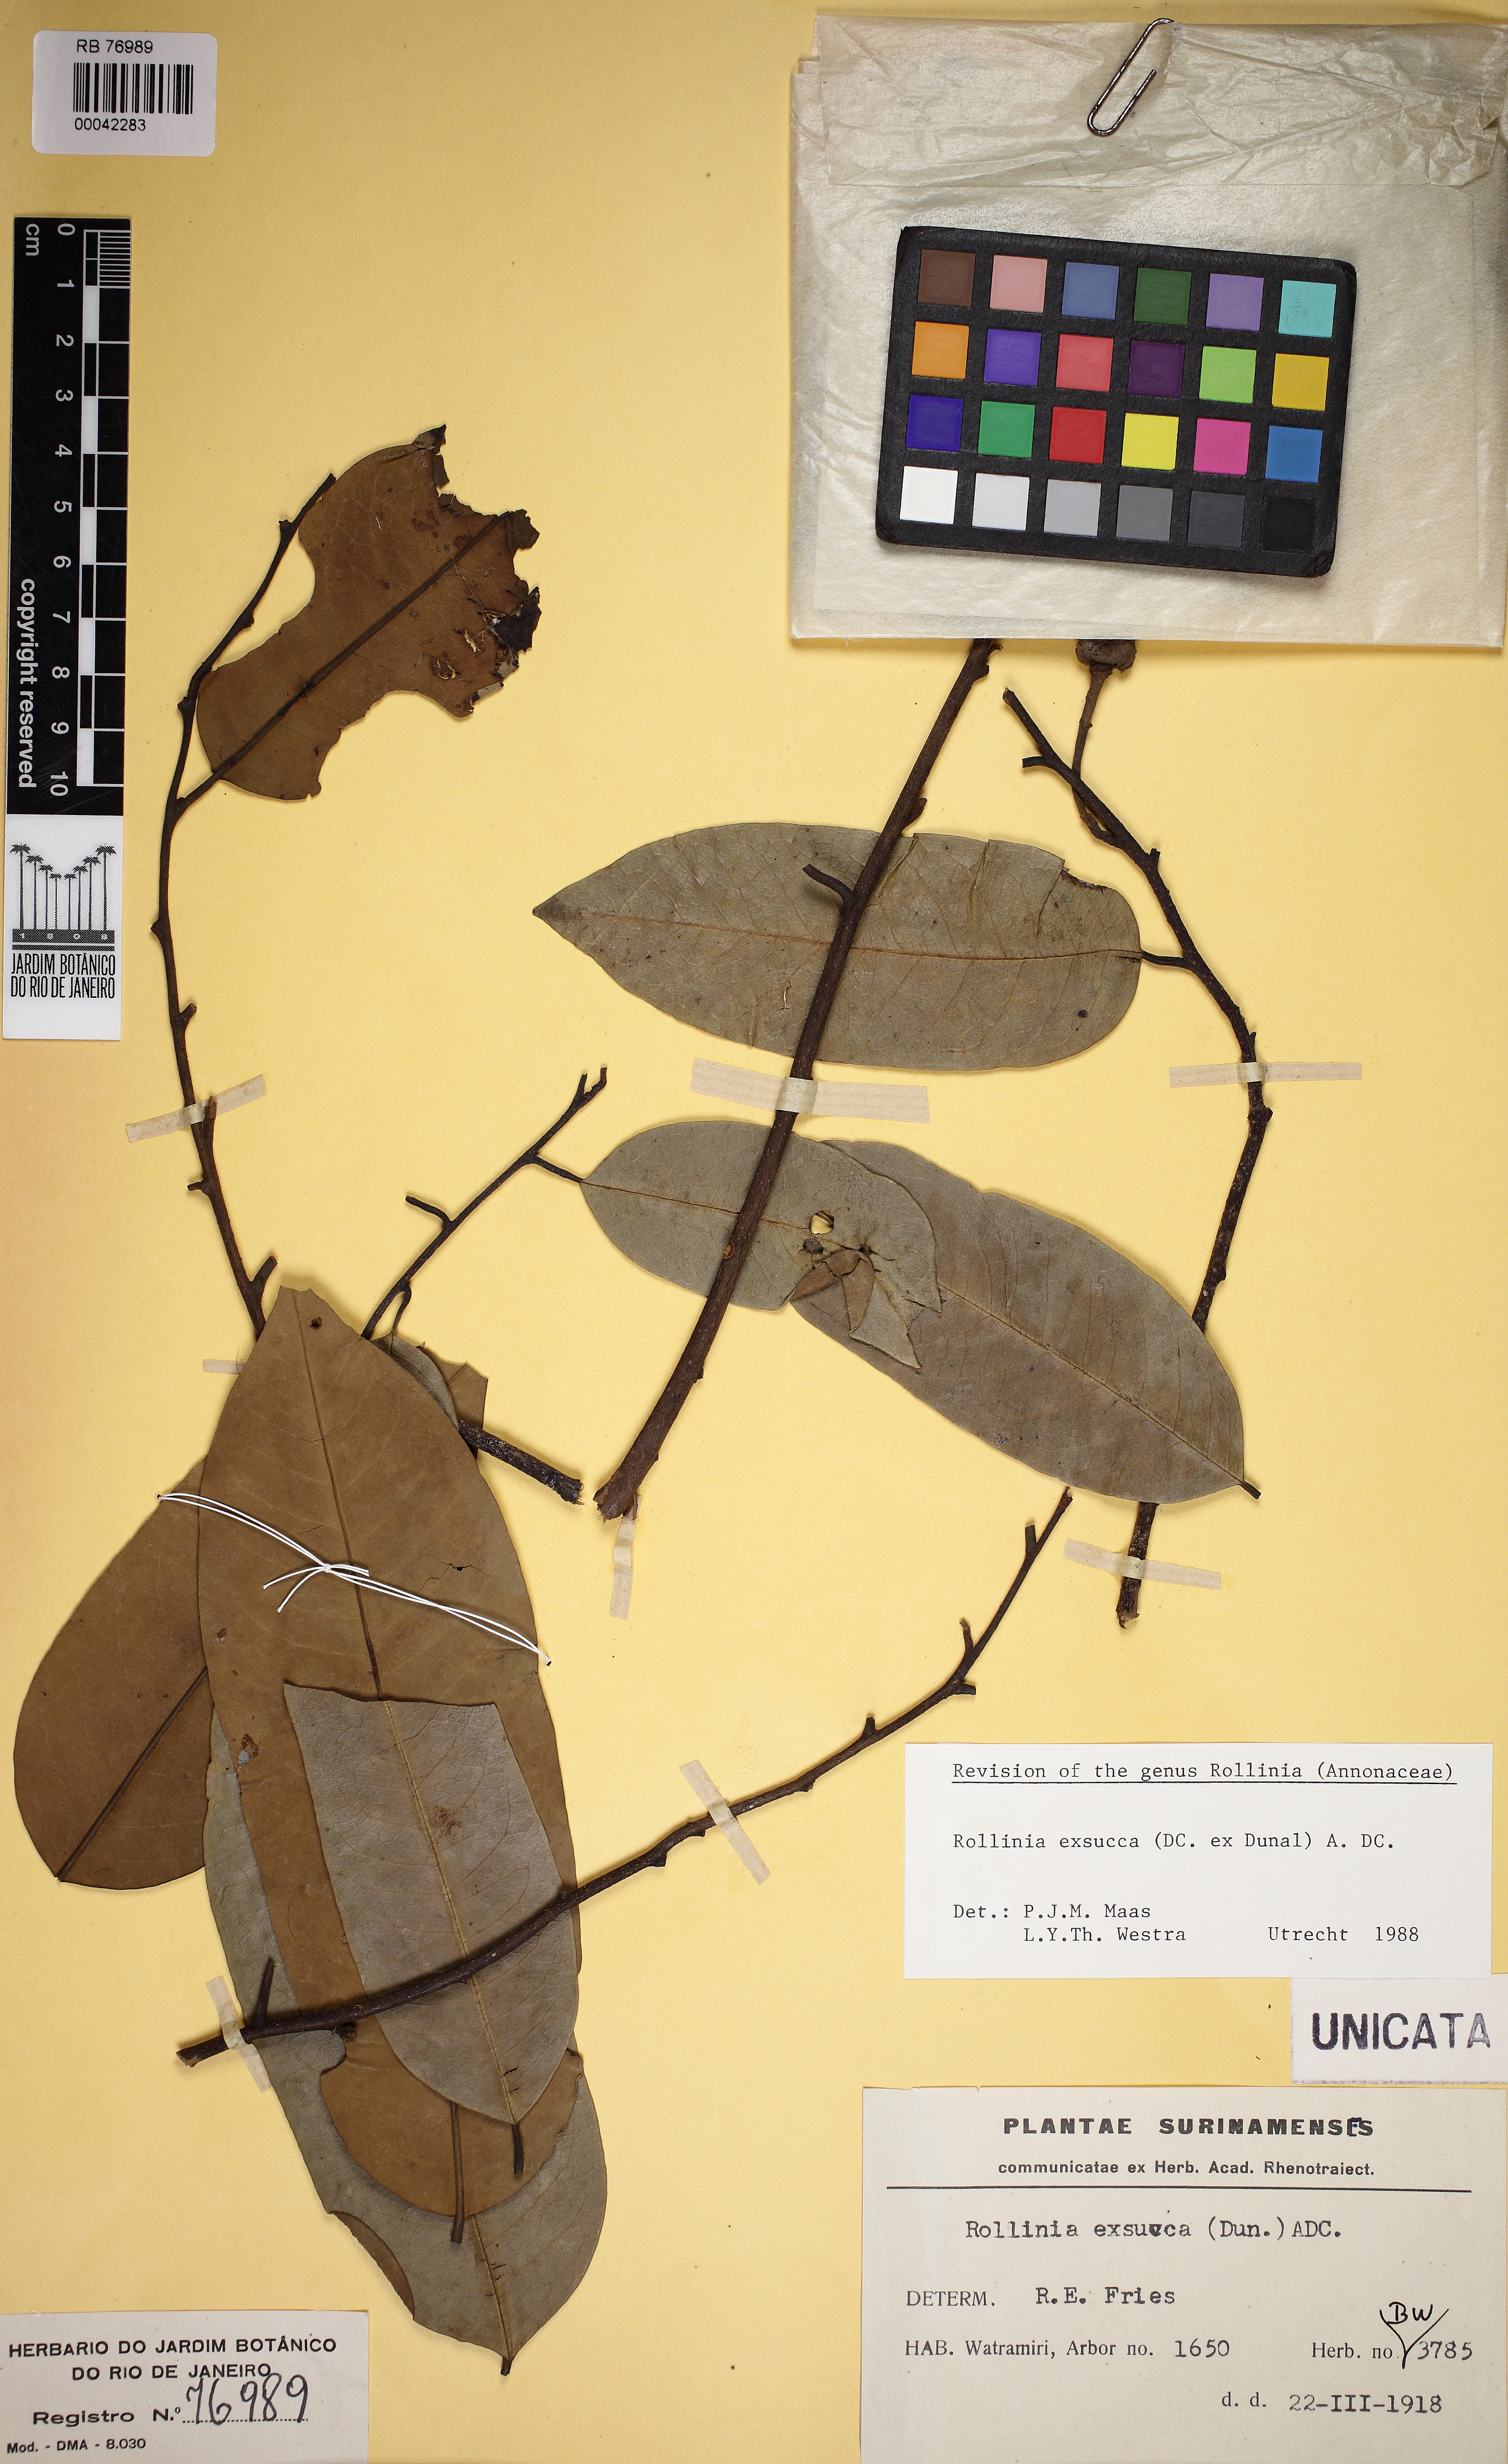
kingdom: Plantae
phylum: Tracheophyta
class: Magnoliopsida
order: Magnoliales
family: Annonaceae
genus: Annona
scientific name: Annona emarginata
